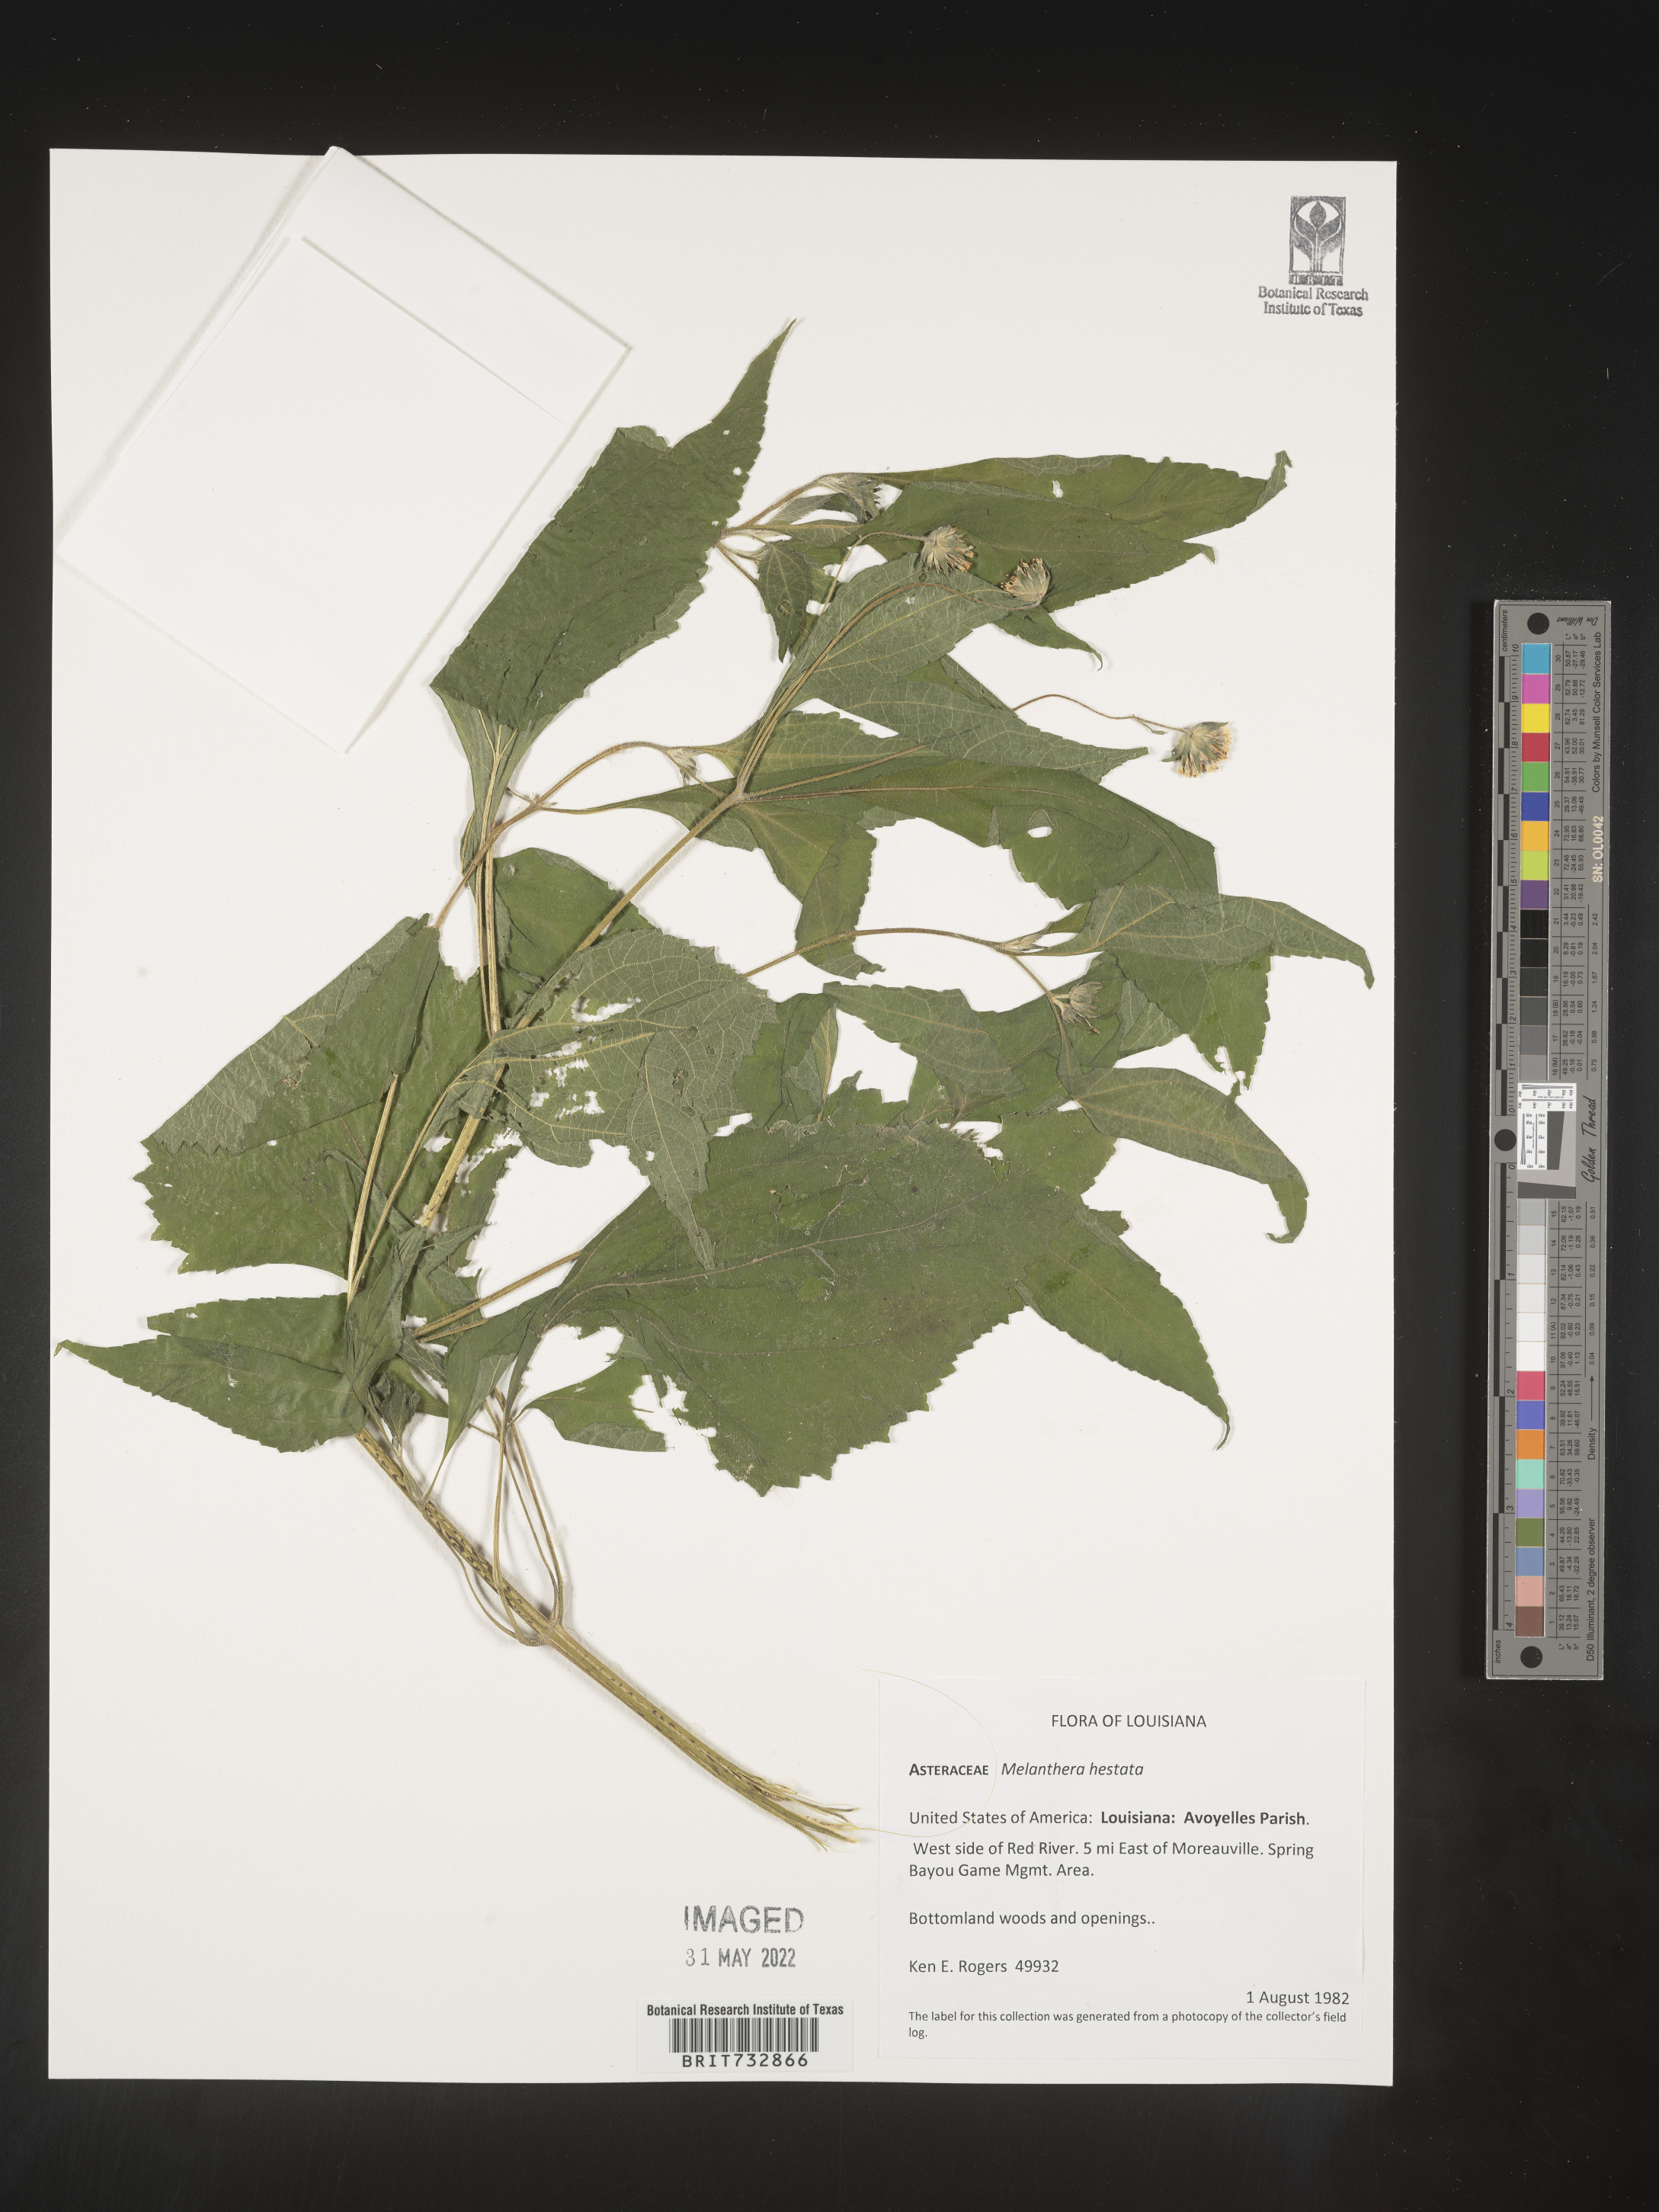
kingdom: Plantae
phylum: Tracheophyta
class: Magnoliopsida
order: Asterales
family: Asteraceae
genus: Melanthera
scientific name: Melanthera nivea
